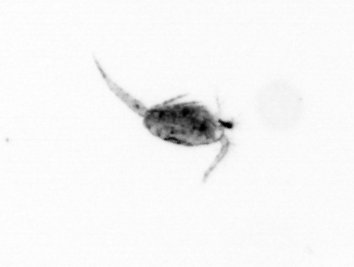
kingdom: Animalia
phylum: Arthropoda
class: Copepoda
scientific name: Copepoda
